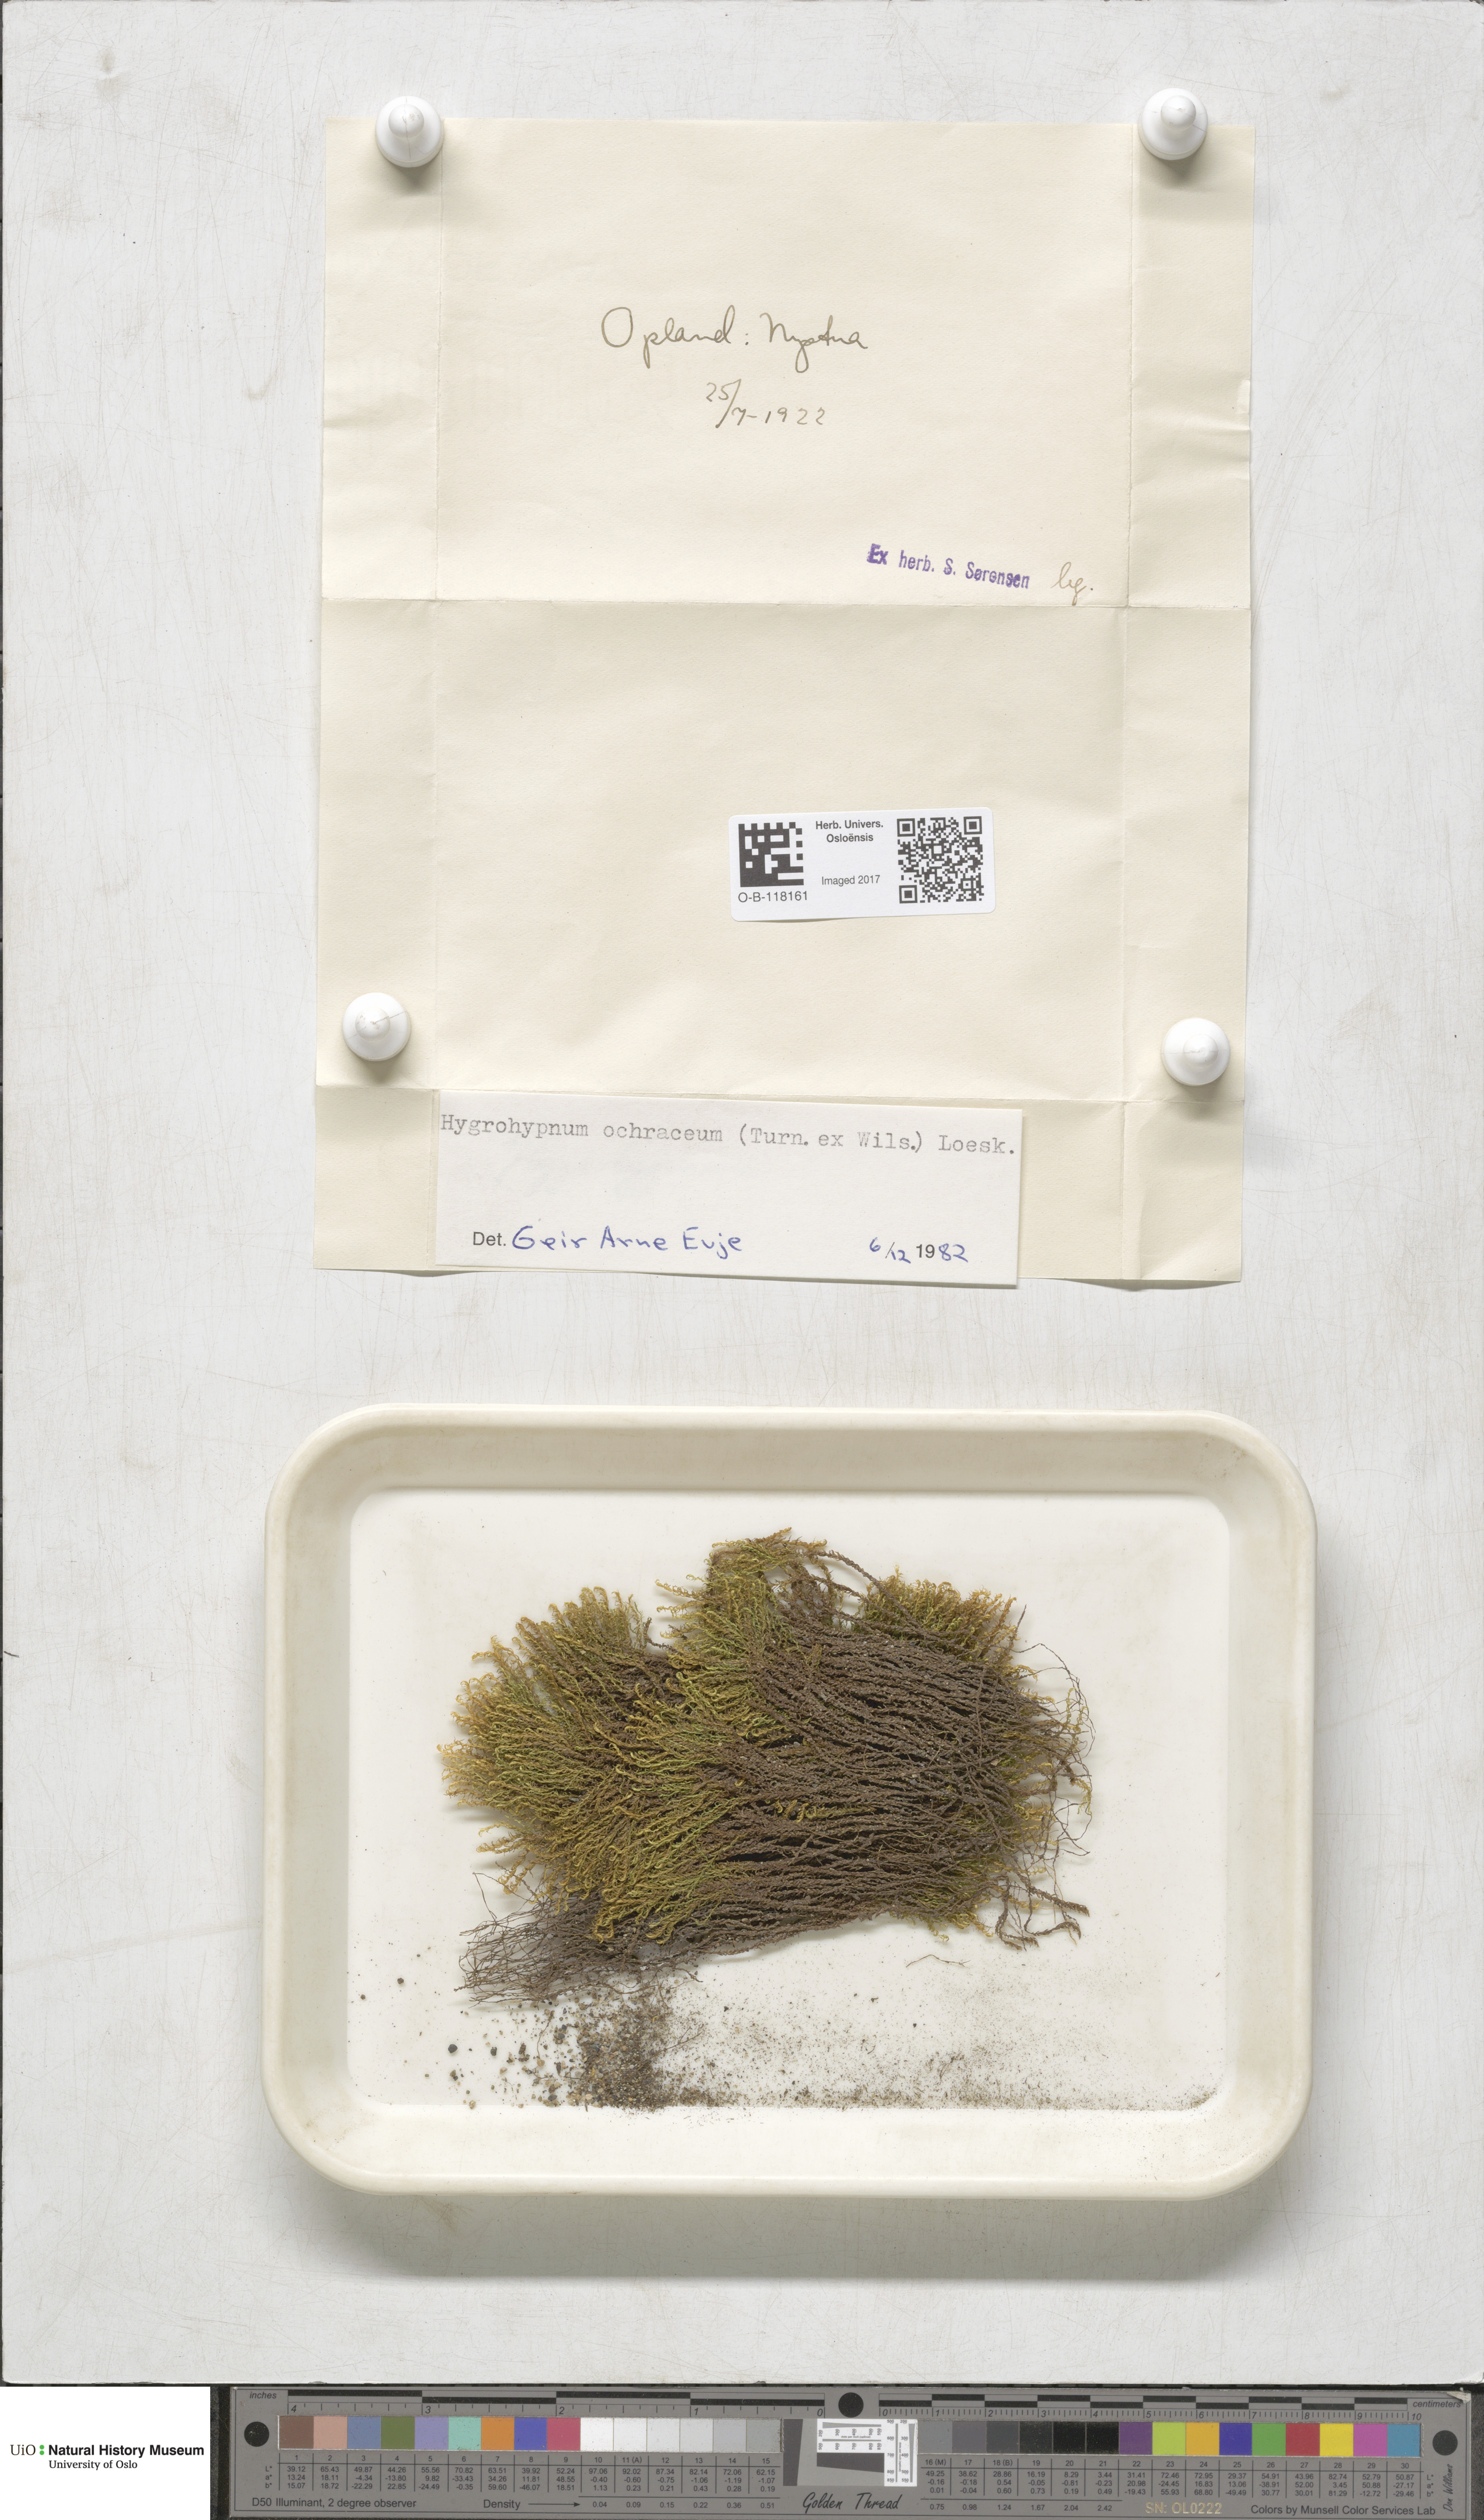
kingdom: Plantae
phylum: Bryophyta
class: Bryopsida
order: Hypnales
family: Scorpidiaceae
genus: Hygrohypnella
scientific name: Hygrohypnella ochracea
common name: Hygrohypnum moss
